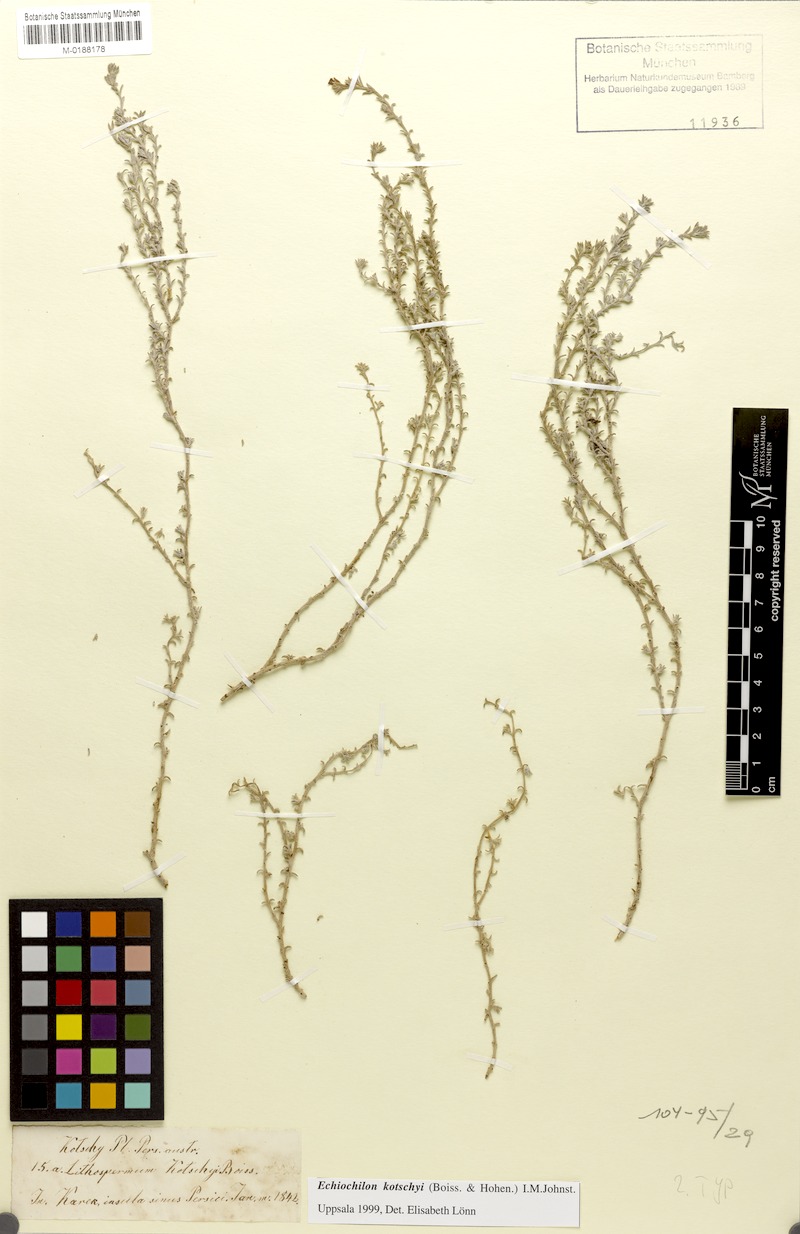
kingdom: Plantae
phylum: Tracheophyta
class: Magnoliopsida
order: Boraginales
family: Boraginaceae
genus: Echiochilon
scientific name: Echiochilon kotschyi
